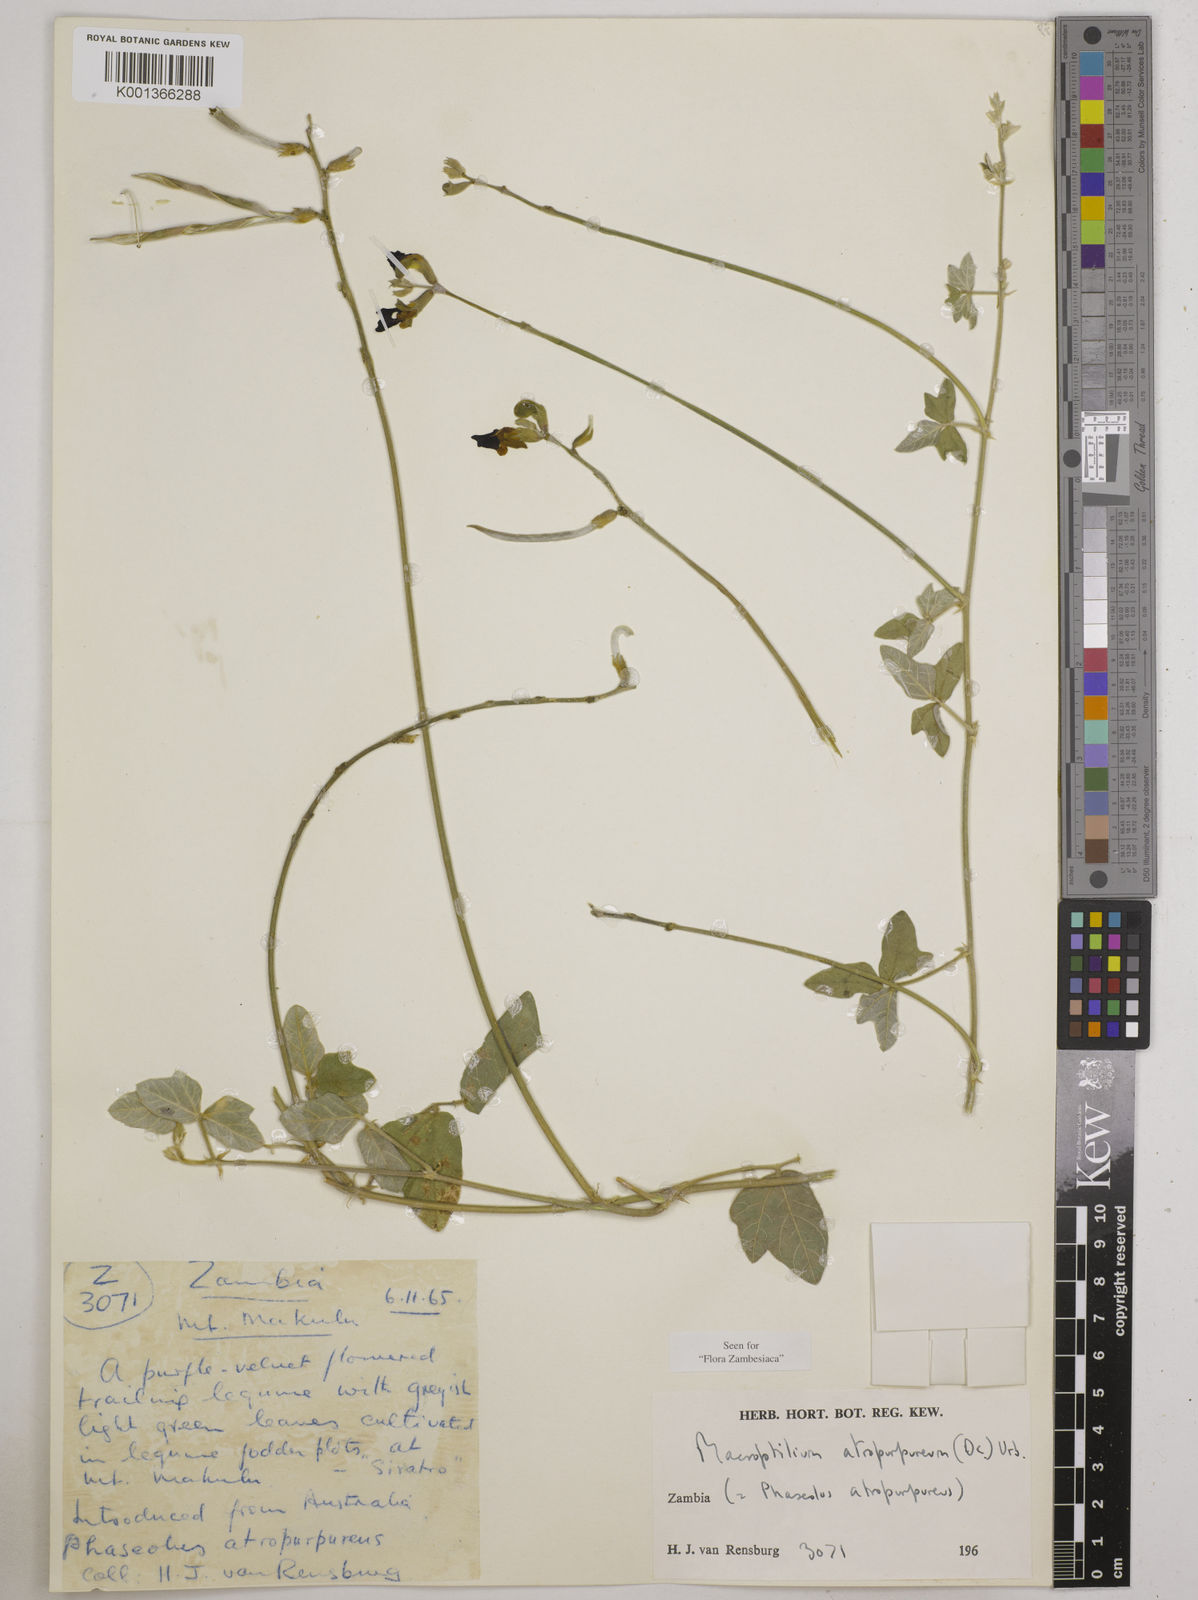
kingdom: Plantae
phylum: Tracheophyta
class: Magnoliopsida
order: Fabales
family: Fabaceae
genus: Macroptilium
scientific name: Macroptilium atropurpureum
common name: Purple bushbean
